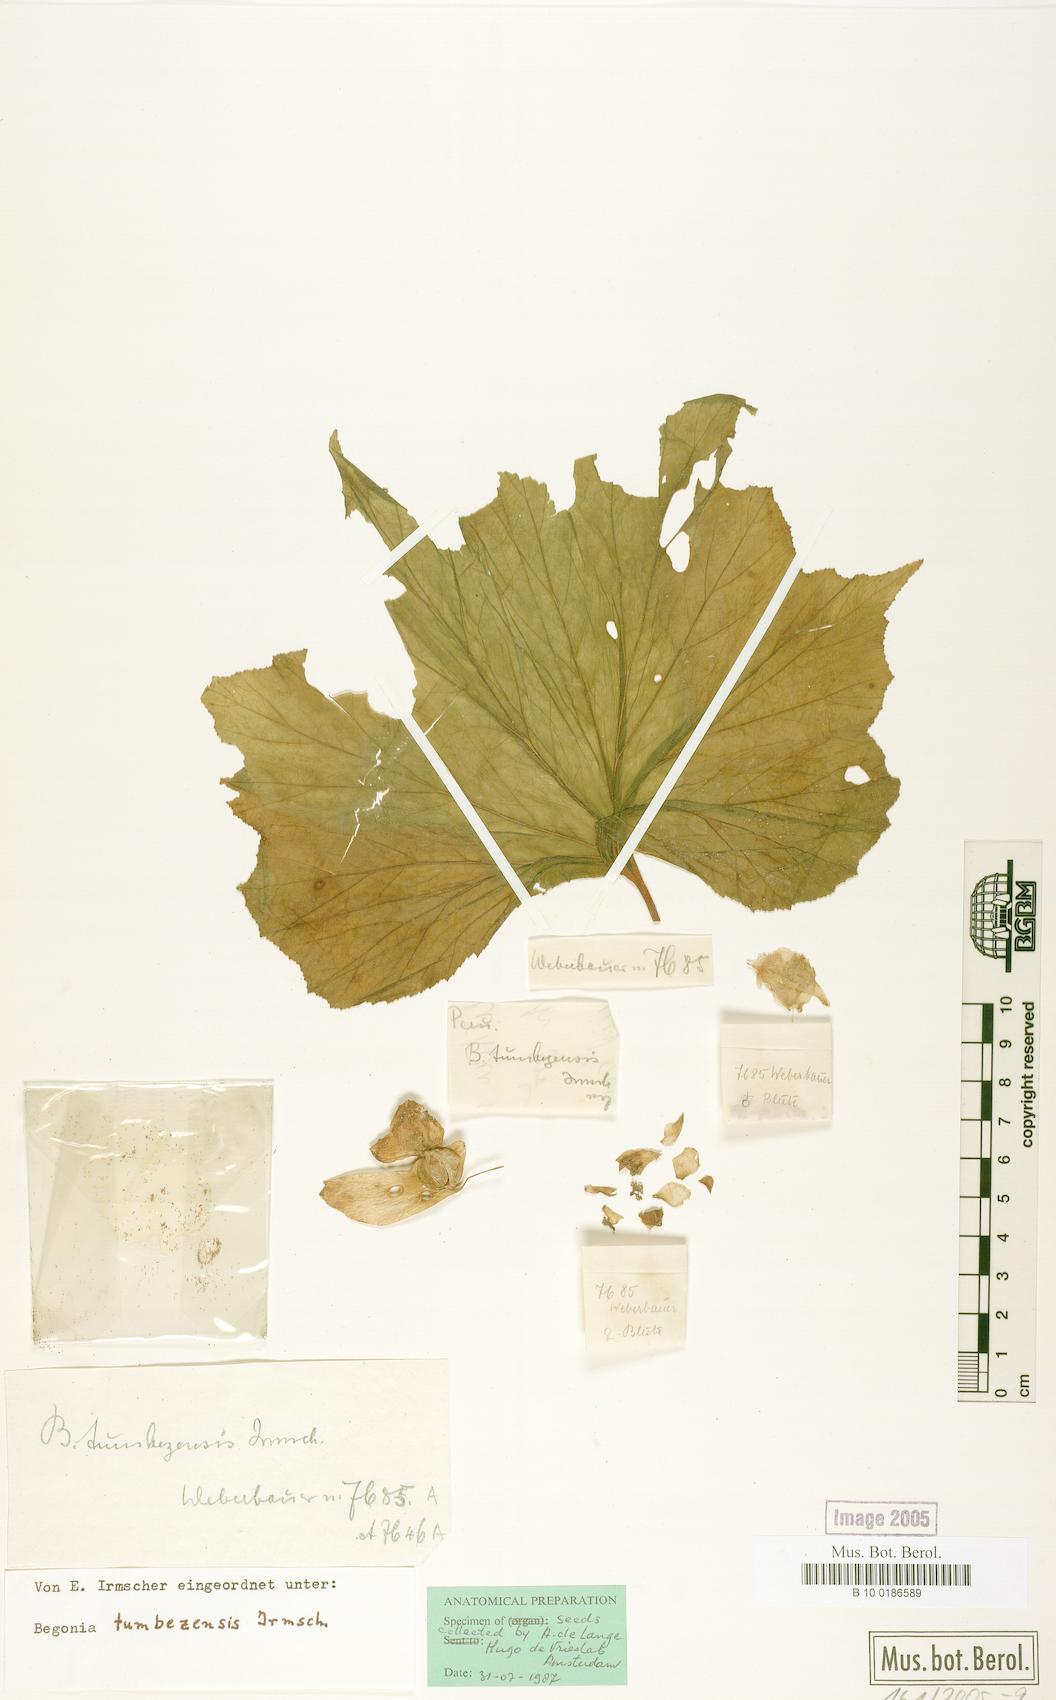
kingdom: Plantae
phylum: Tracheophyta
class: Magnoliopsida
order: Cucurbitales
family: Begoniaceae
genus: Begonia
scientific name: Begonia tumbezensis
